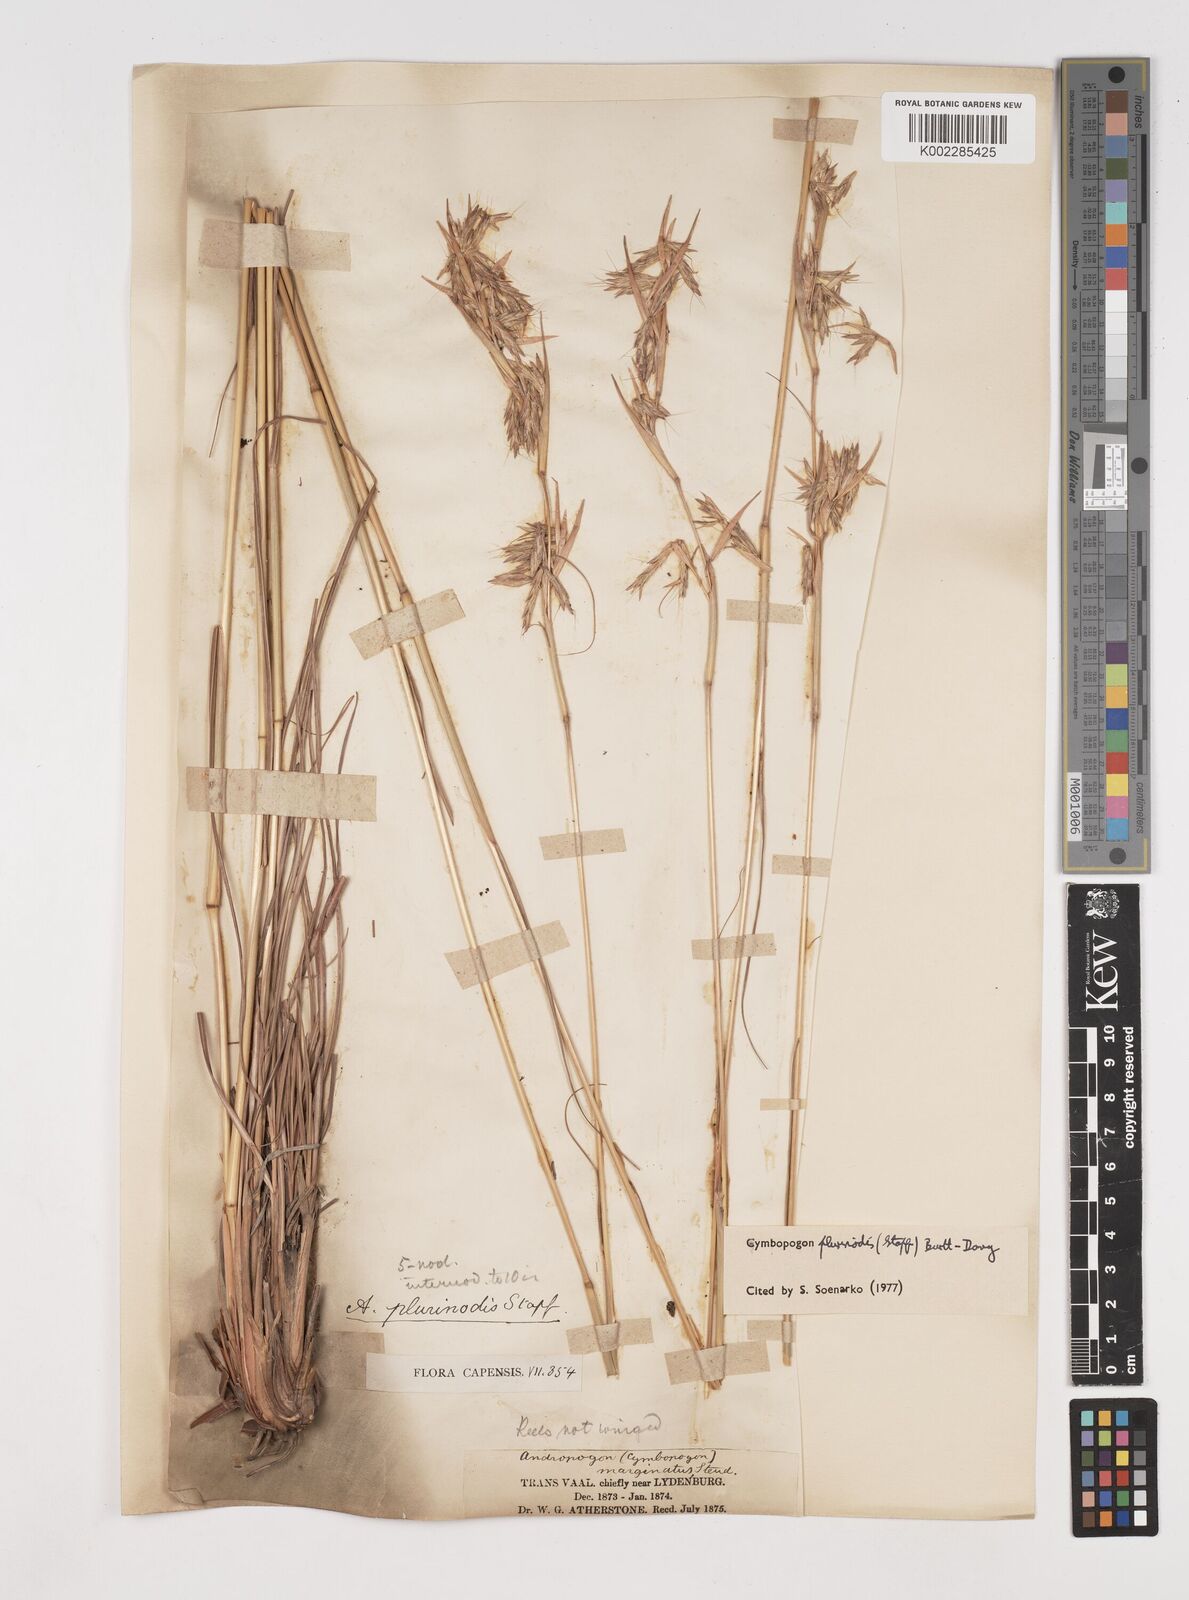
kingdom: Plantae
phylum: Tracheophyta
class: Liliopsida
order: Poales
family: Poaceae
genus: Cymbopogon
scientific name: Cymbopogon
